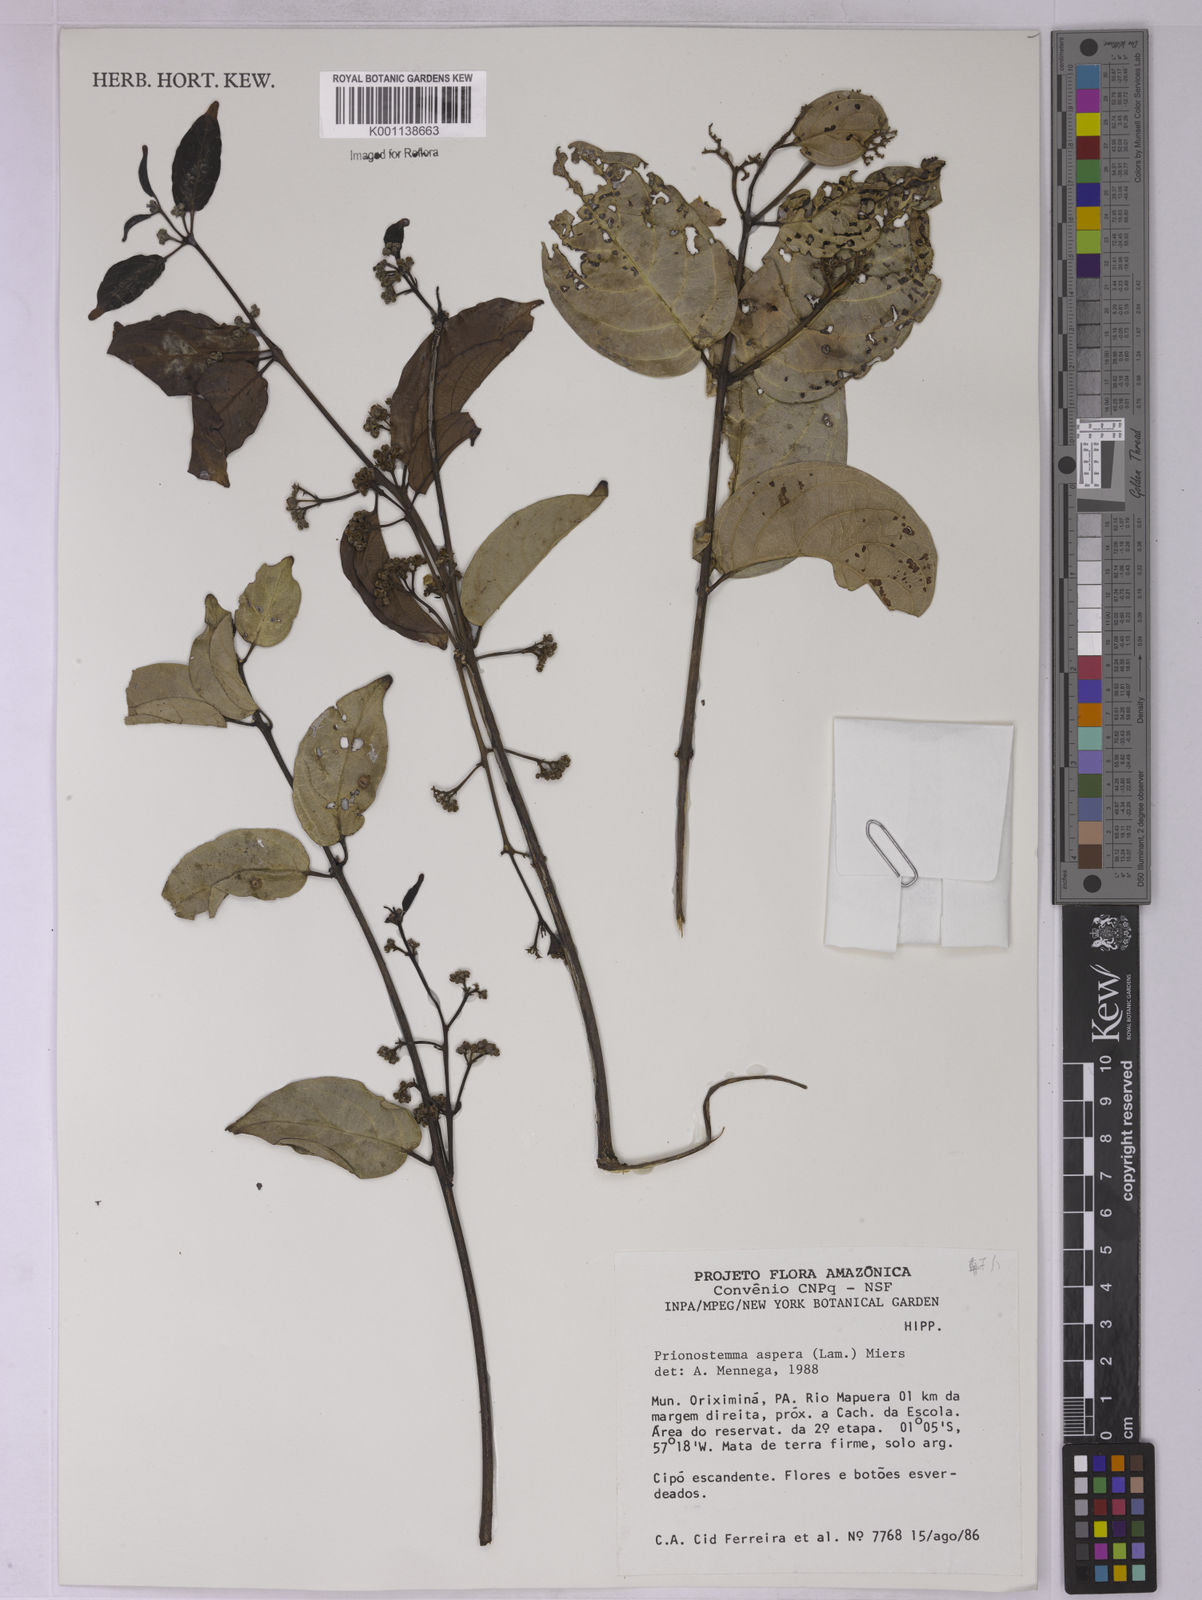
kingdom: Plantae
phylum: Tracheophyta
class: Magnoliopsida
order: Celastrales
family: Celastraceae
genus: Prionostemma
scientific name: Prionostemma aspera
